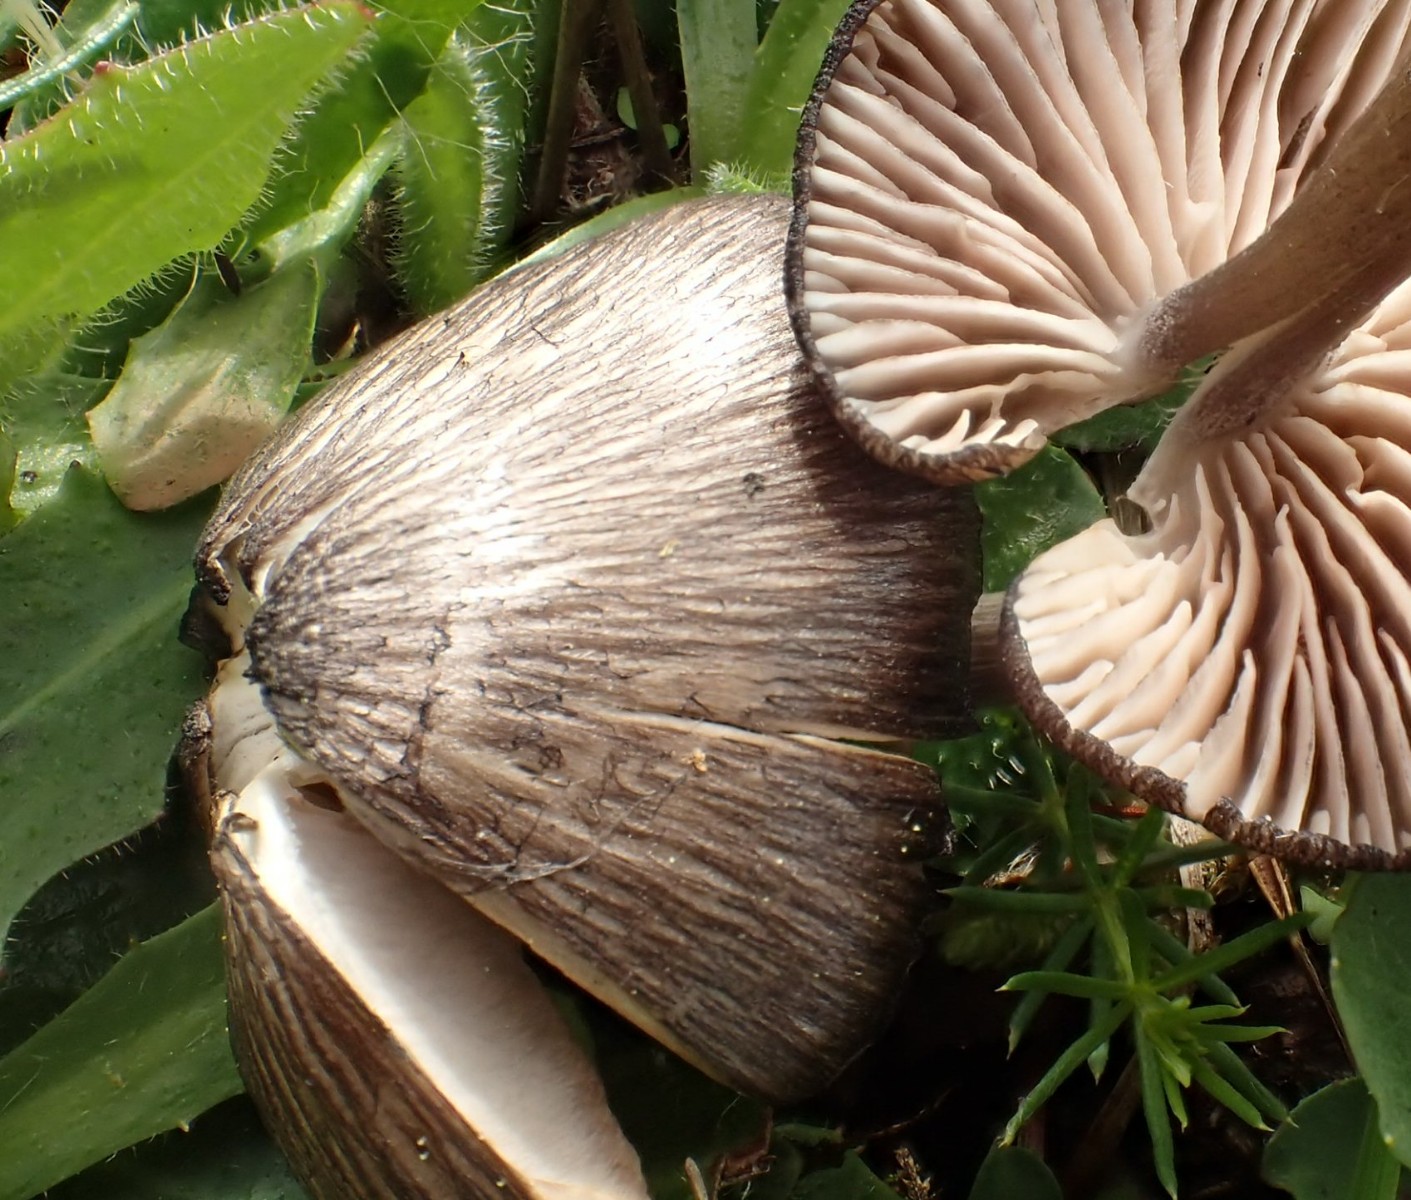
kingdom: Fungi
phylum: Basidiomycota
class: Agaricomycetes
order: Agaricales
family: Entolomataceae
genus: Entoloma
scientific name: Entoloma
